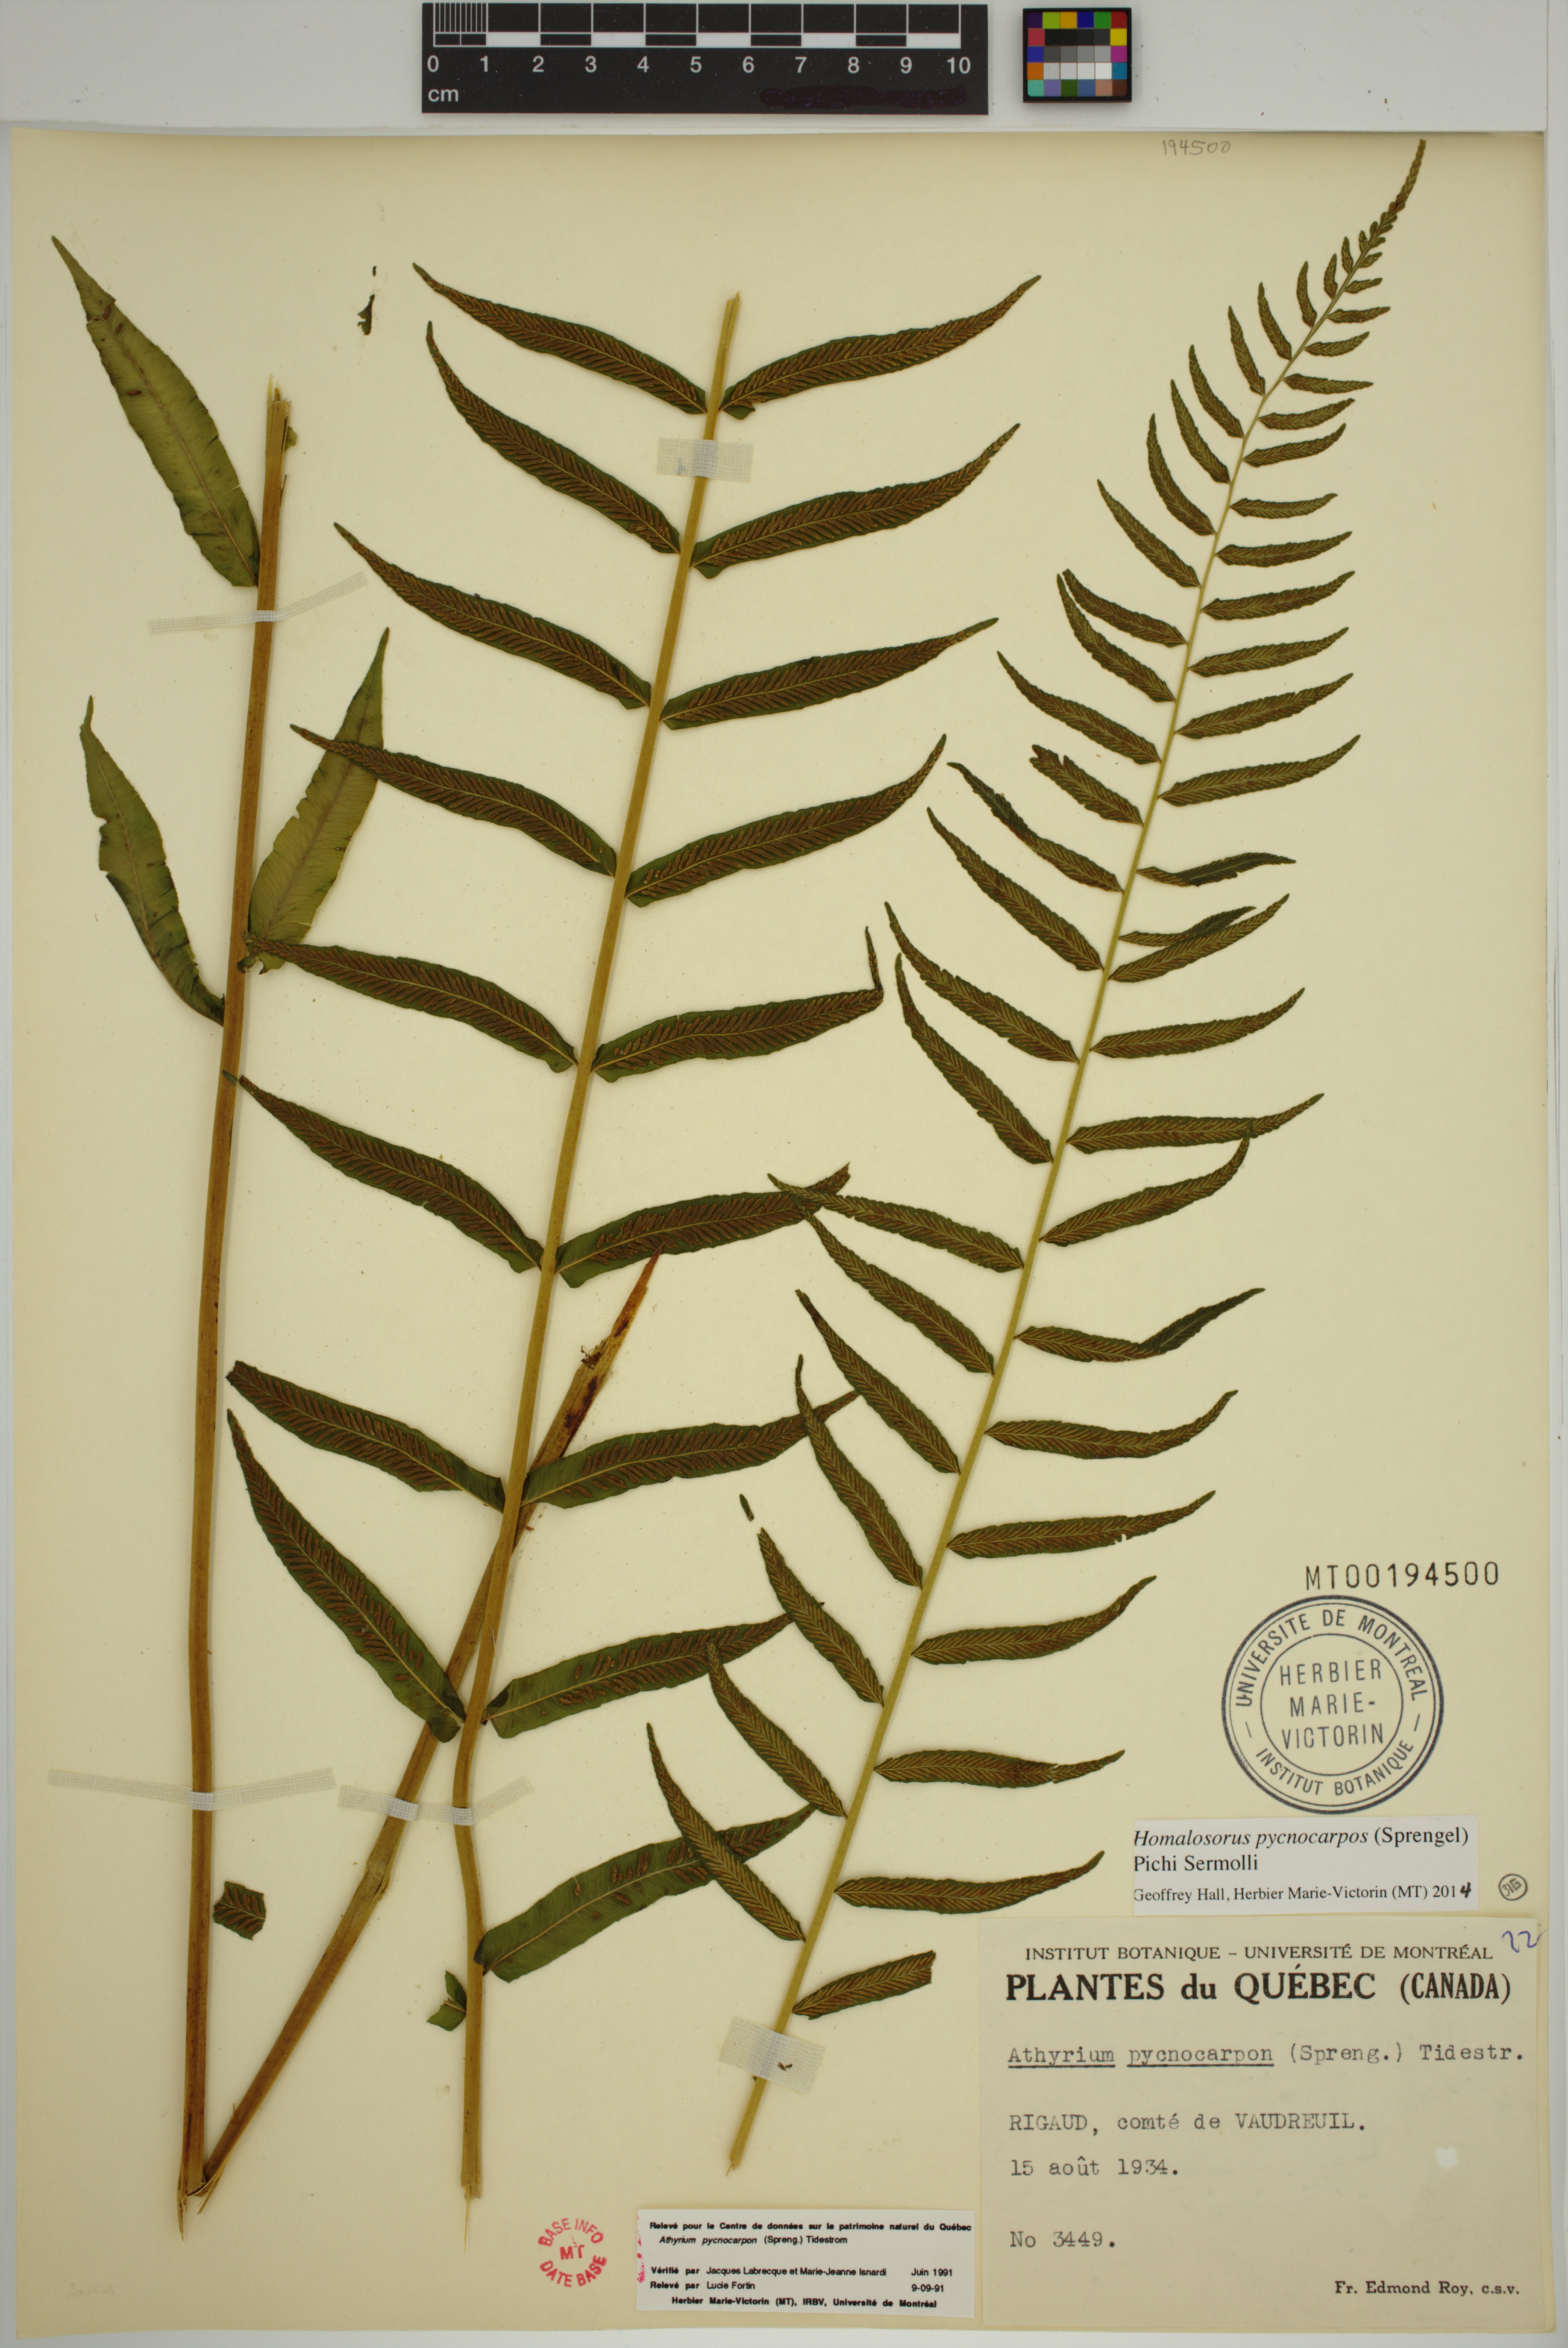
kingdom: Plantae
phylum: Tracheophyta
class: Polypodiopsida
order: Polypodiales
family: Diplaziopsidaceae
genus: Homalosorus
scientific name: Homalosorus pycnocarpos
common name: Glade fern
